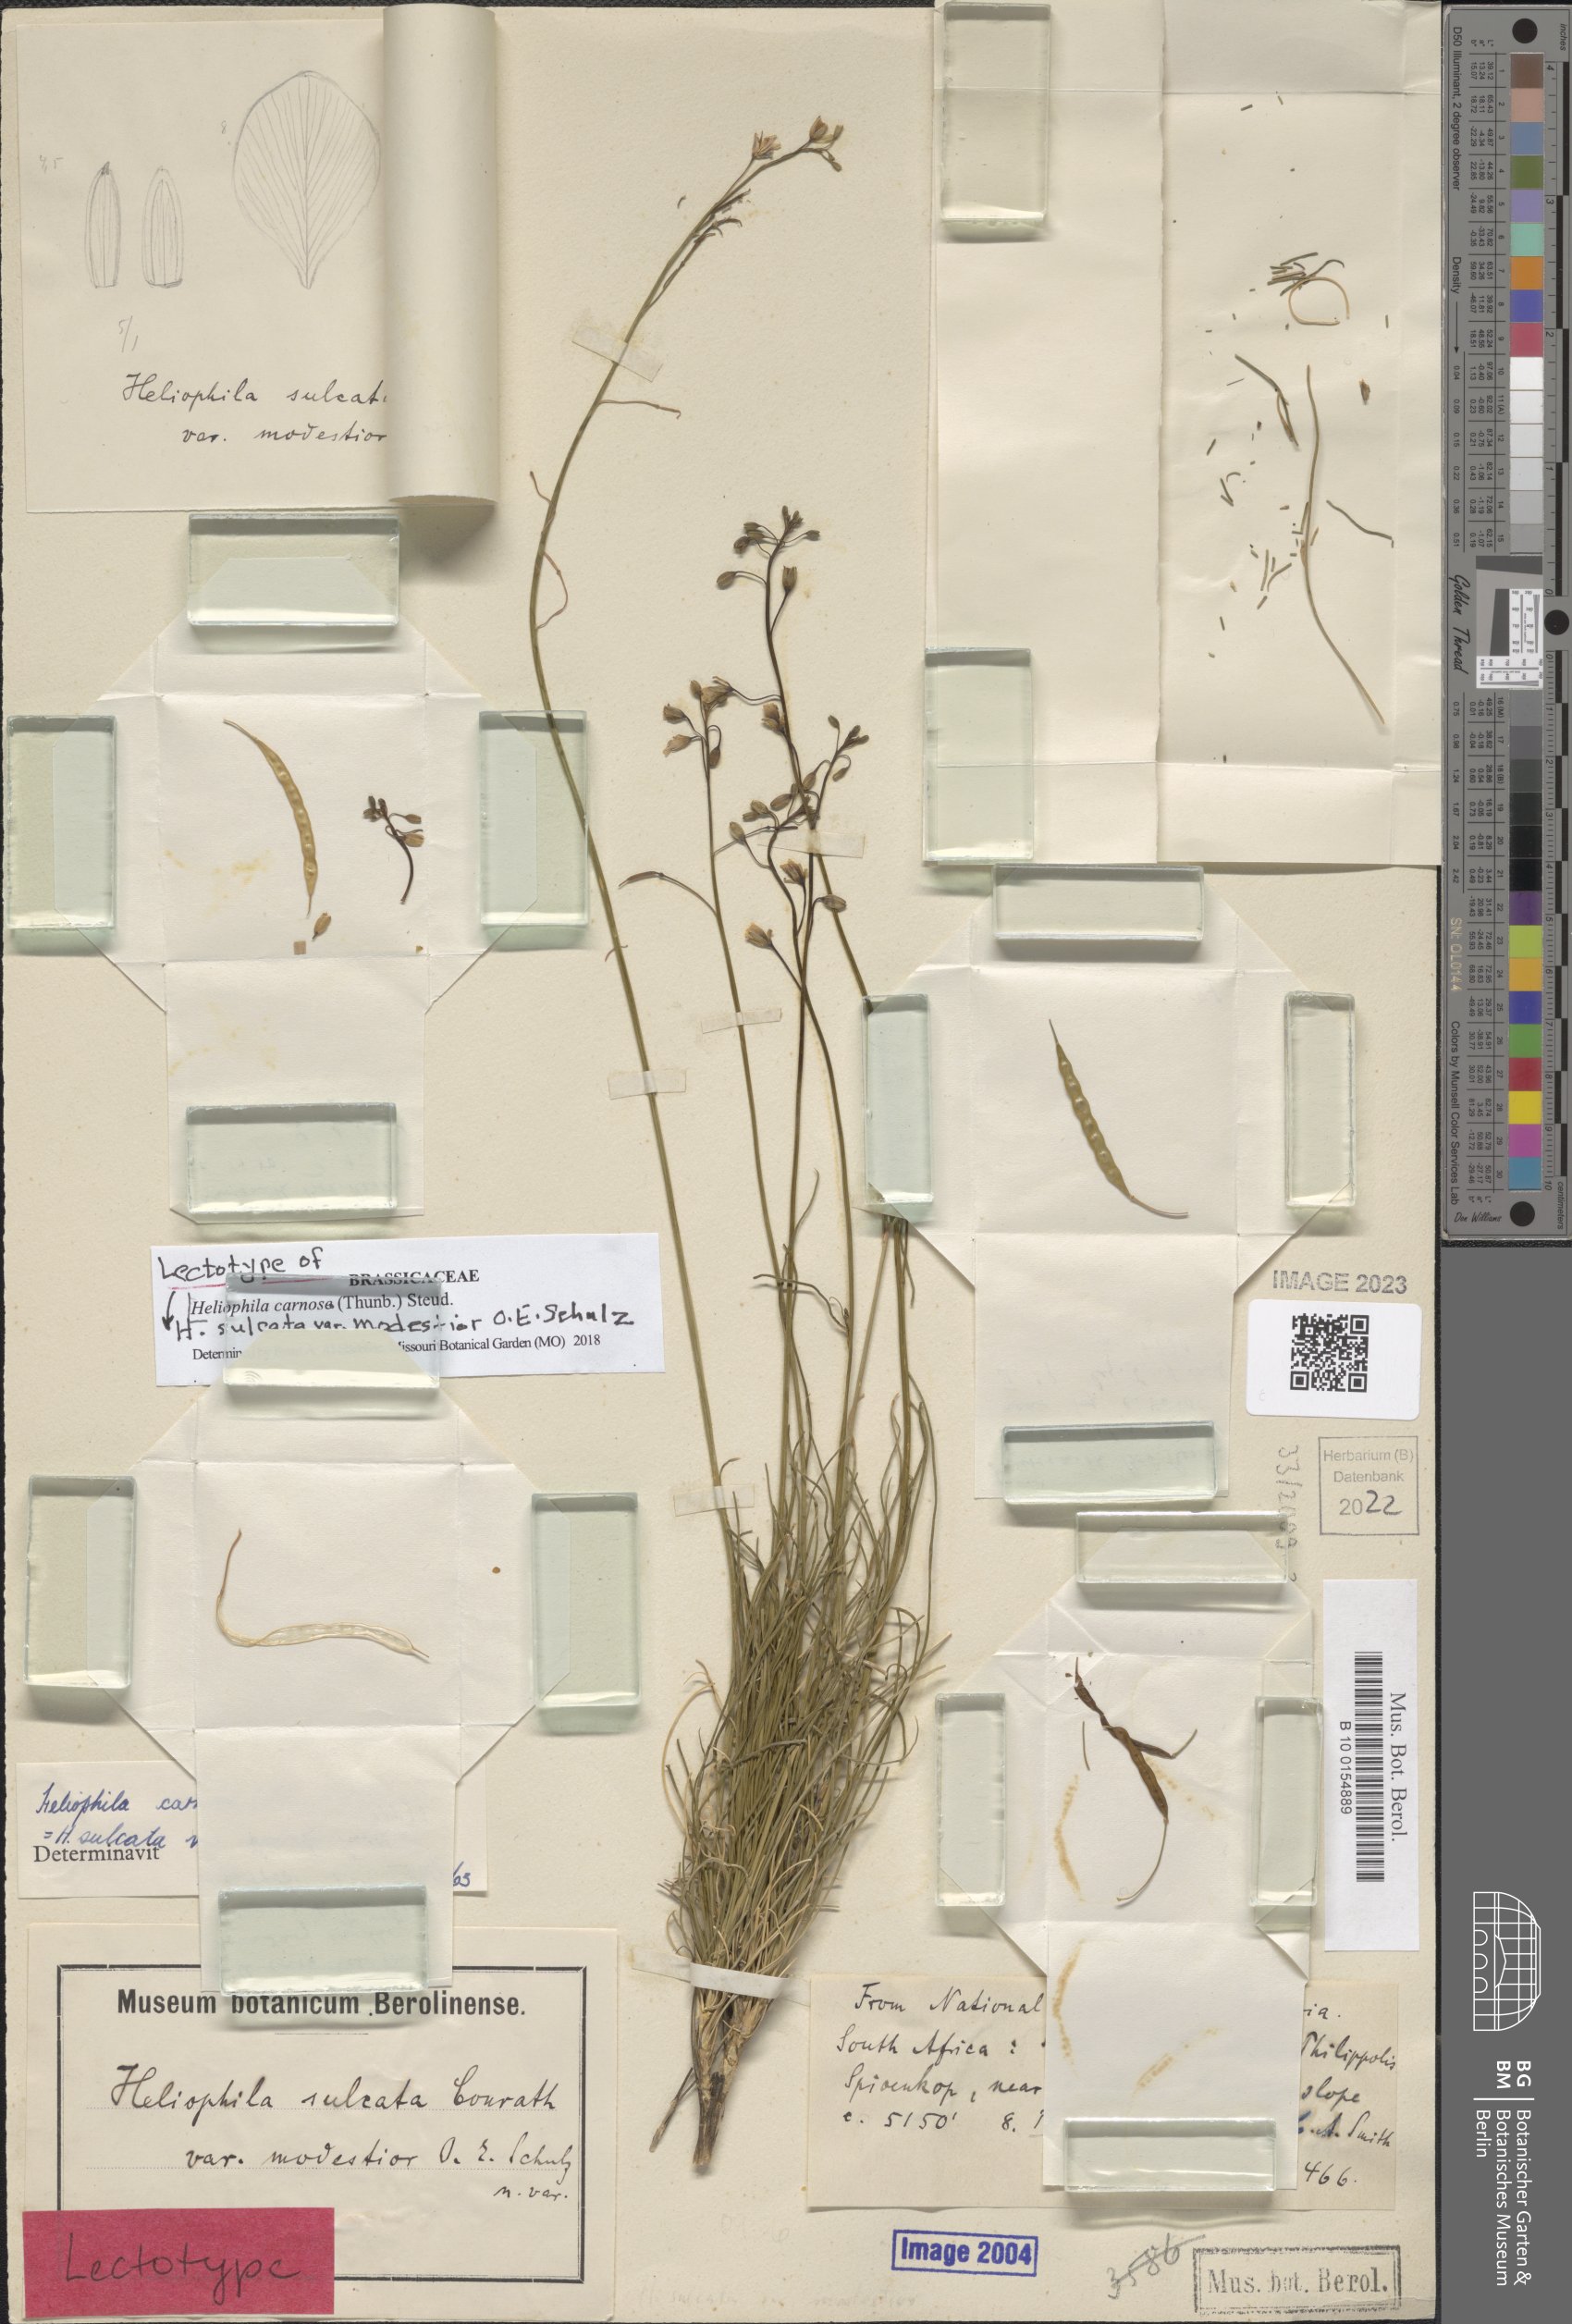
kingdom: Plantae
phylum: Tracheophyta
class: Magnoliopsida
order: Brassicales
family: Brassicaceae
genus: Heliophila
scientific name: Heliophila carnosa
